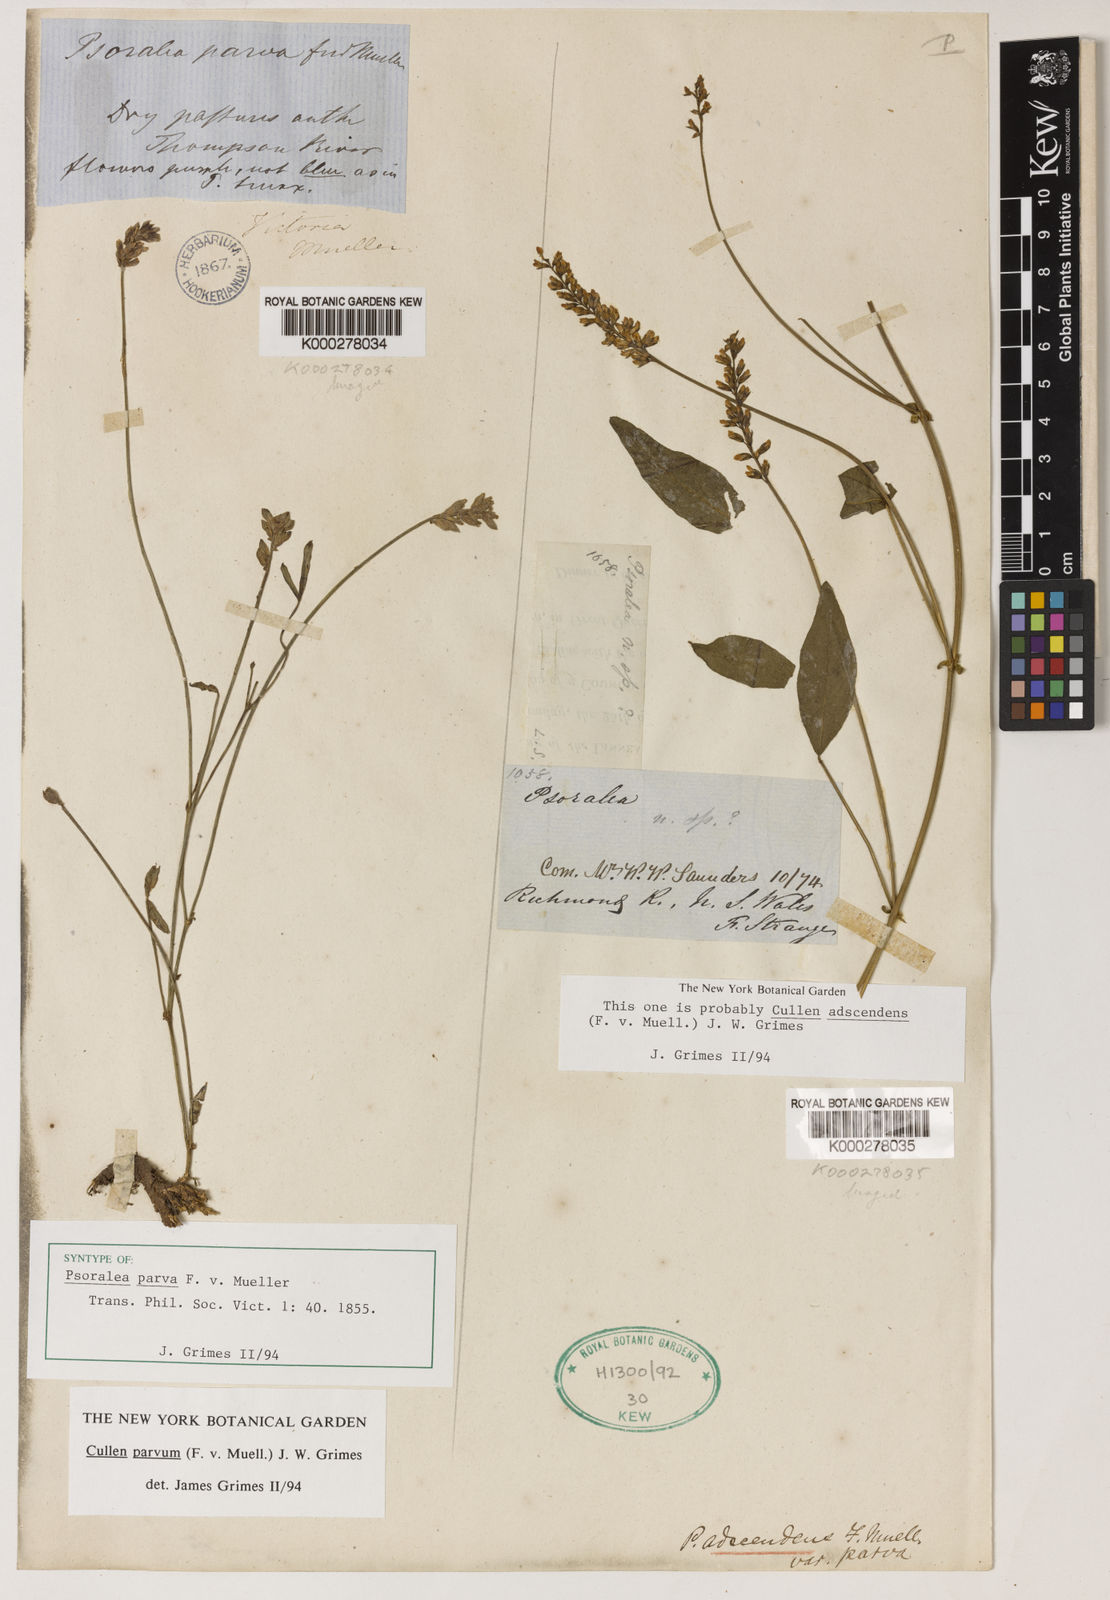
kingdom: Plantae
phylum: Tracheophyta
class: Magnoliopsida
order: Fabales
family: Fabaceae
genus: Cullen
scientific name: Cullen parvum
